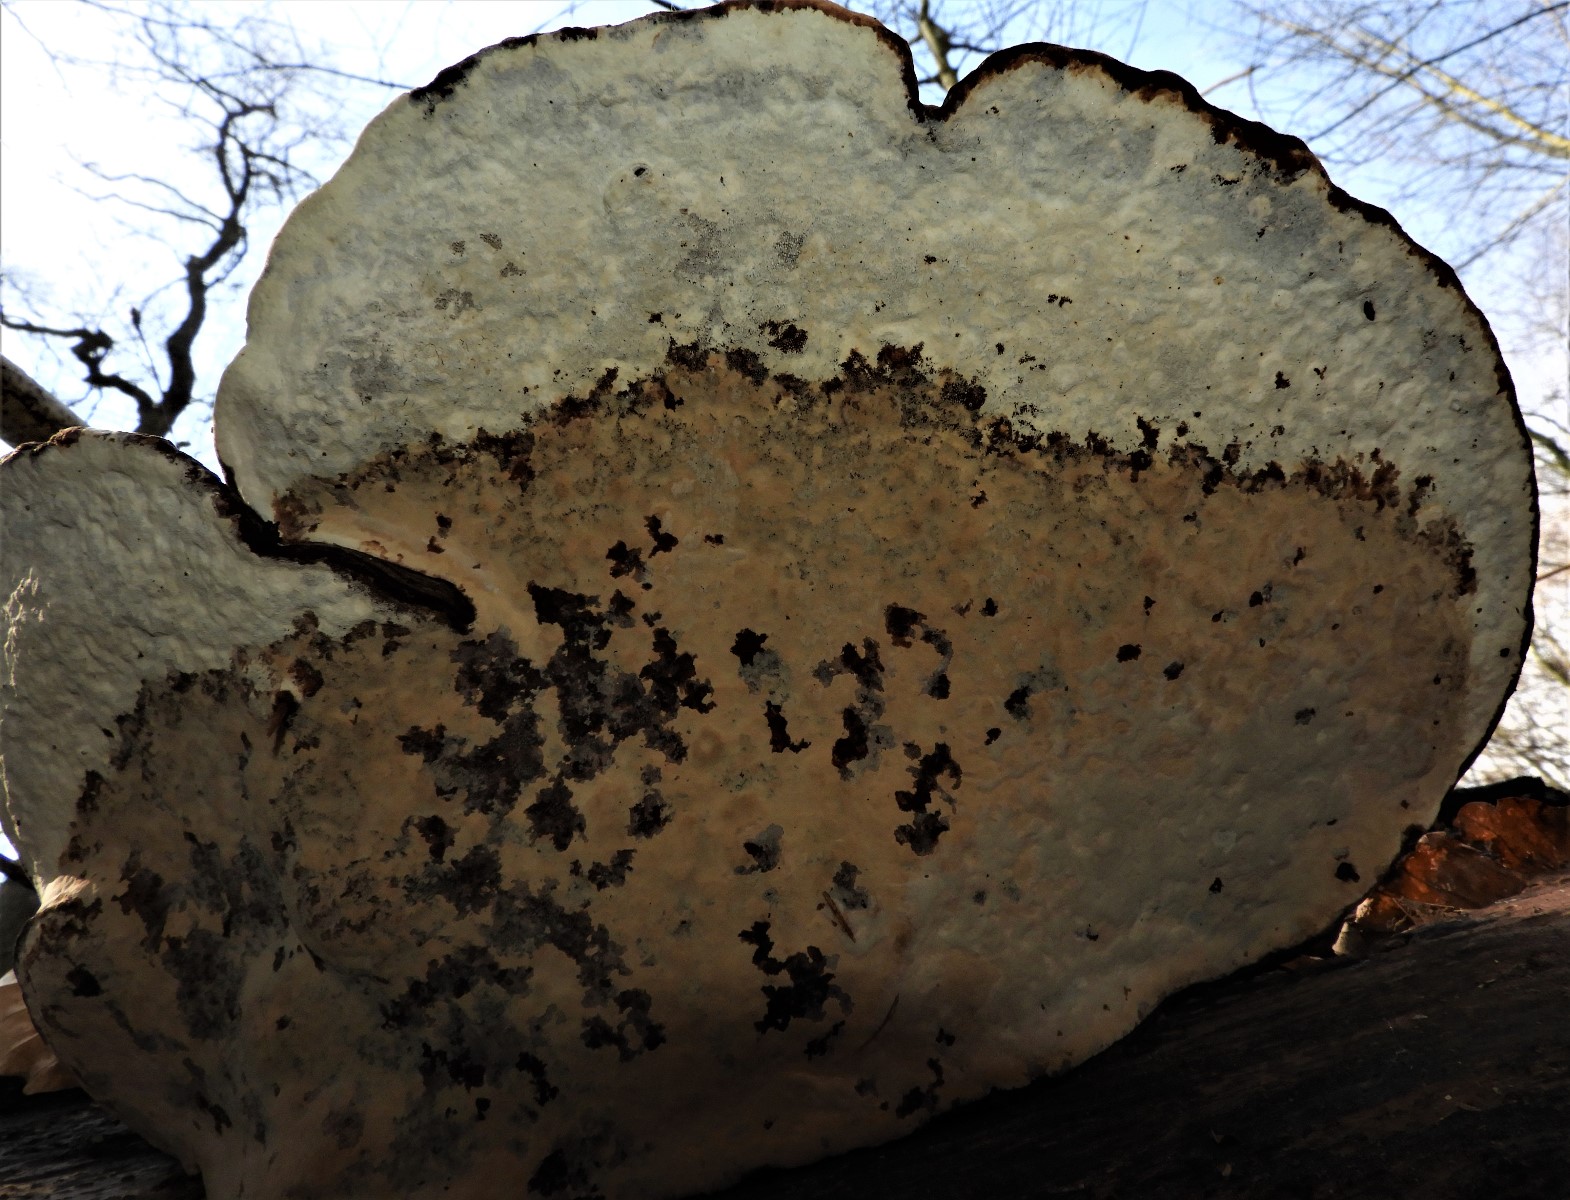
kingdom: Fungi
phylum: Basidiomycota
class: Agaricomycetes
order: Polyporales
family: Polyporaceae
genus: Ganoderma
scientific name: Ganoderma applanatum
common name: flad lakporesvamp
